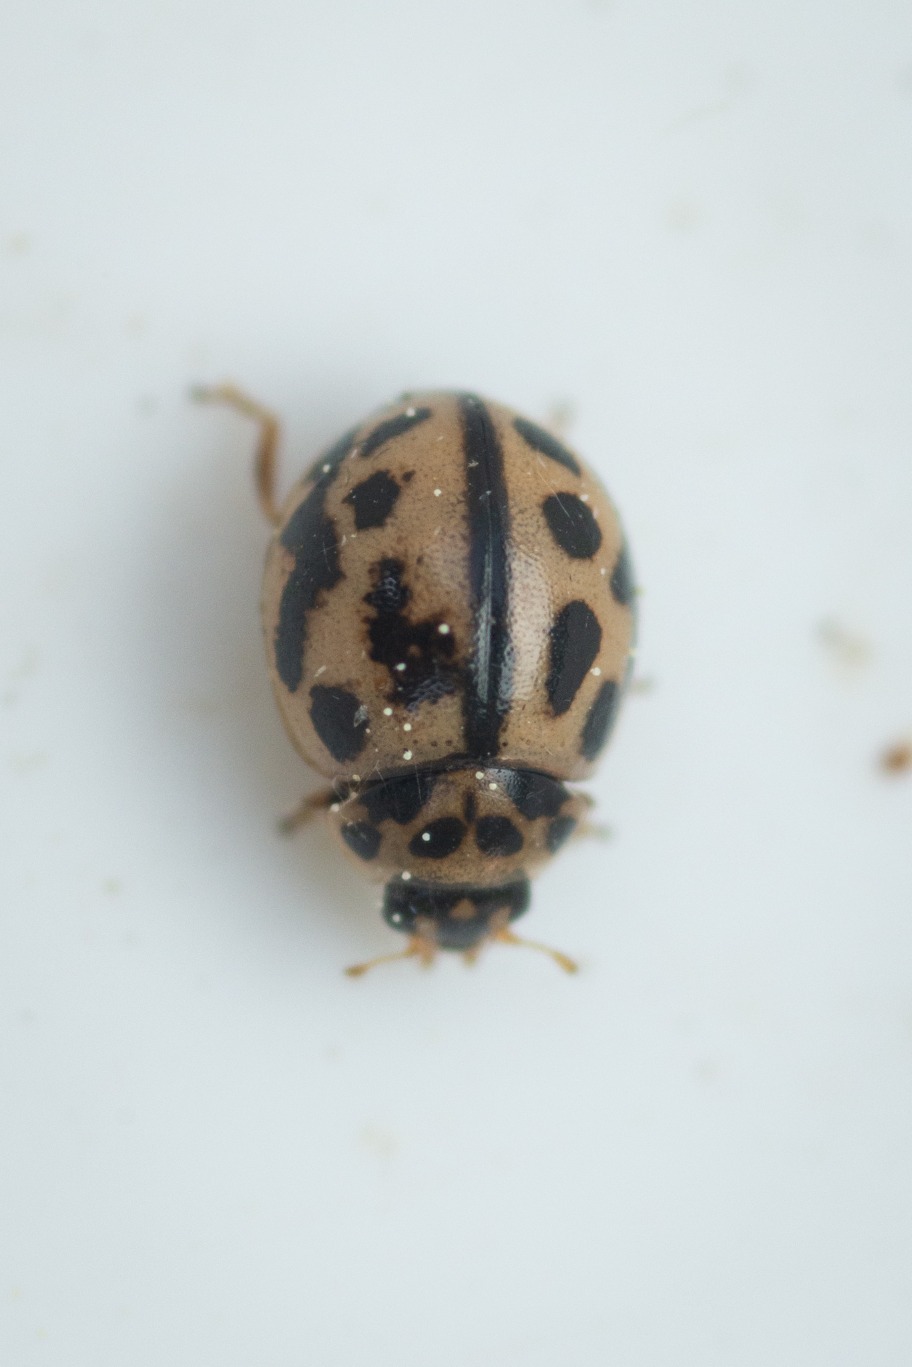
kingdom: Animalia
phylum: Arthropoda
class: Insecta
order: Coleoptera
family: Coccinellidae
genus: Tytthaspis
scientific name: Tytthaspis sedecimpunctata
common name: Sekstenprikket mariehøne
